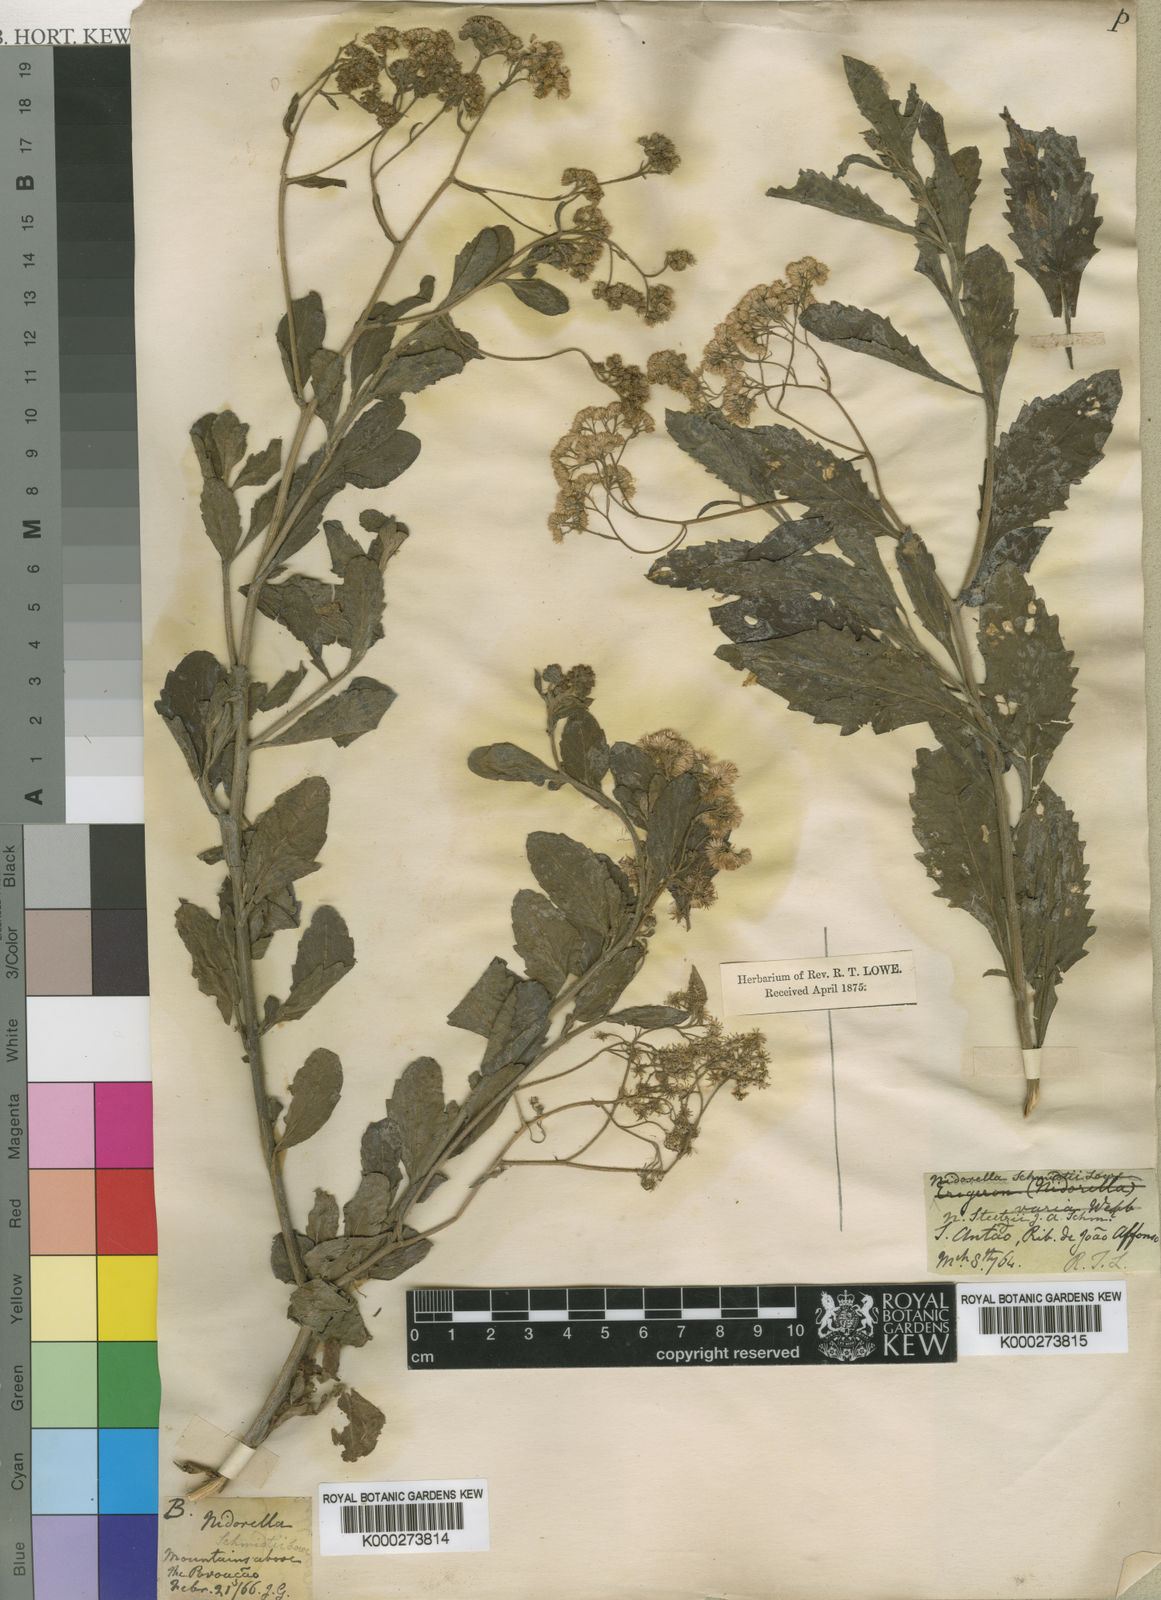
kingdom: Plantae
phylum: Tracheophyta
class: Magnoliopsida
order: Asterales
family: Asteraceae
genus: Nidorella
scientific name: Nidorella
